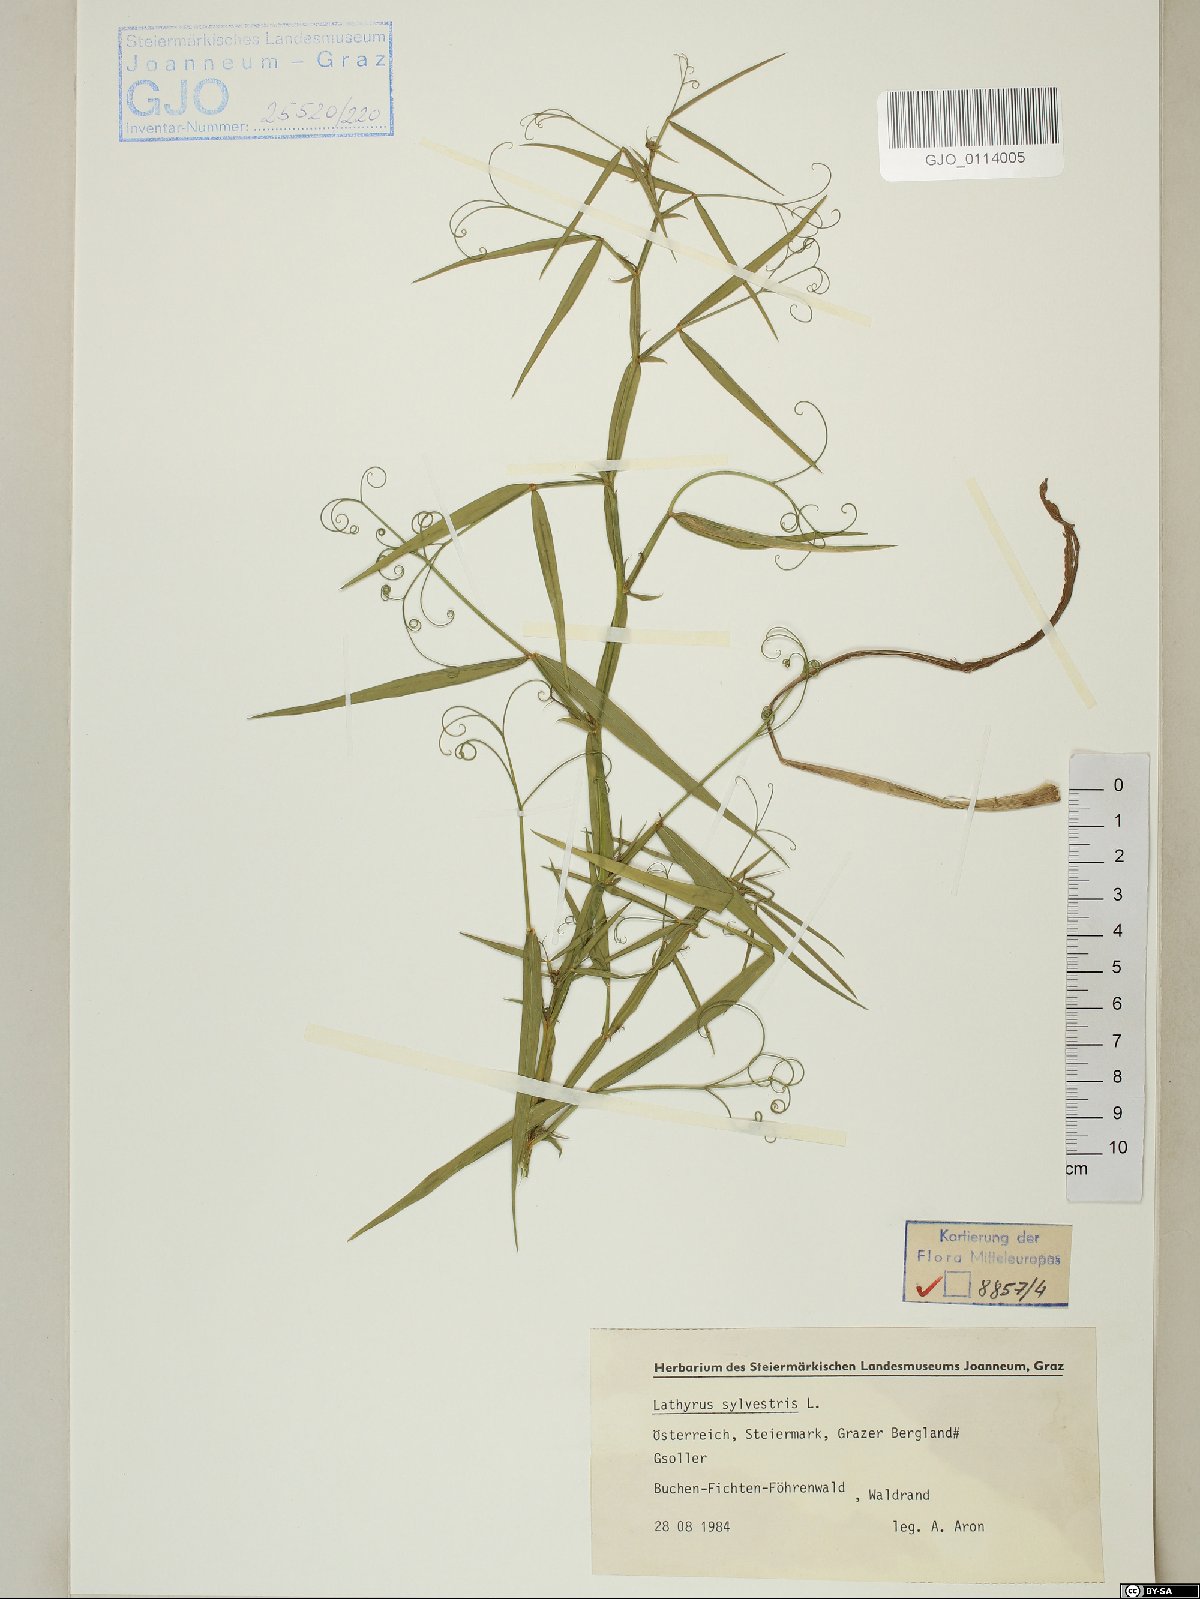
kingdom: Plantae
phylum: Tracheophyta
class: Magnoliopsida
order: Fabales
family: Fabaceae
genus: Lathyrus
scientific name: Lathyrus sylvestris
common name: Flat pea
